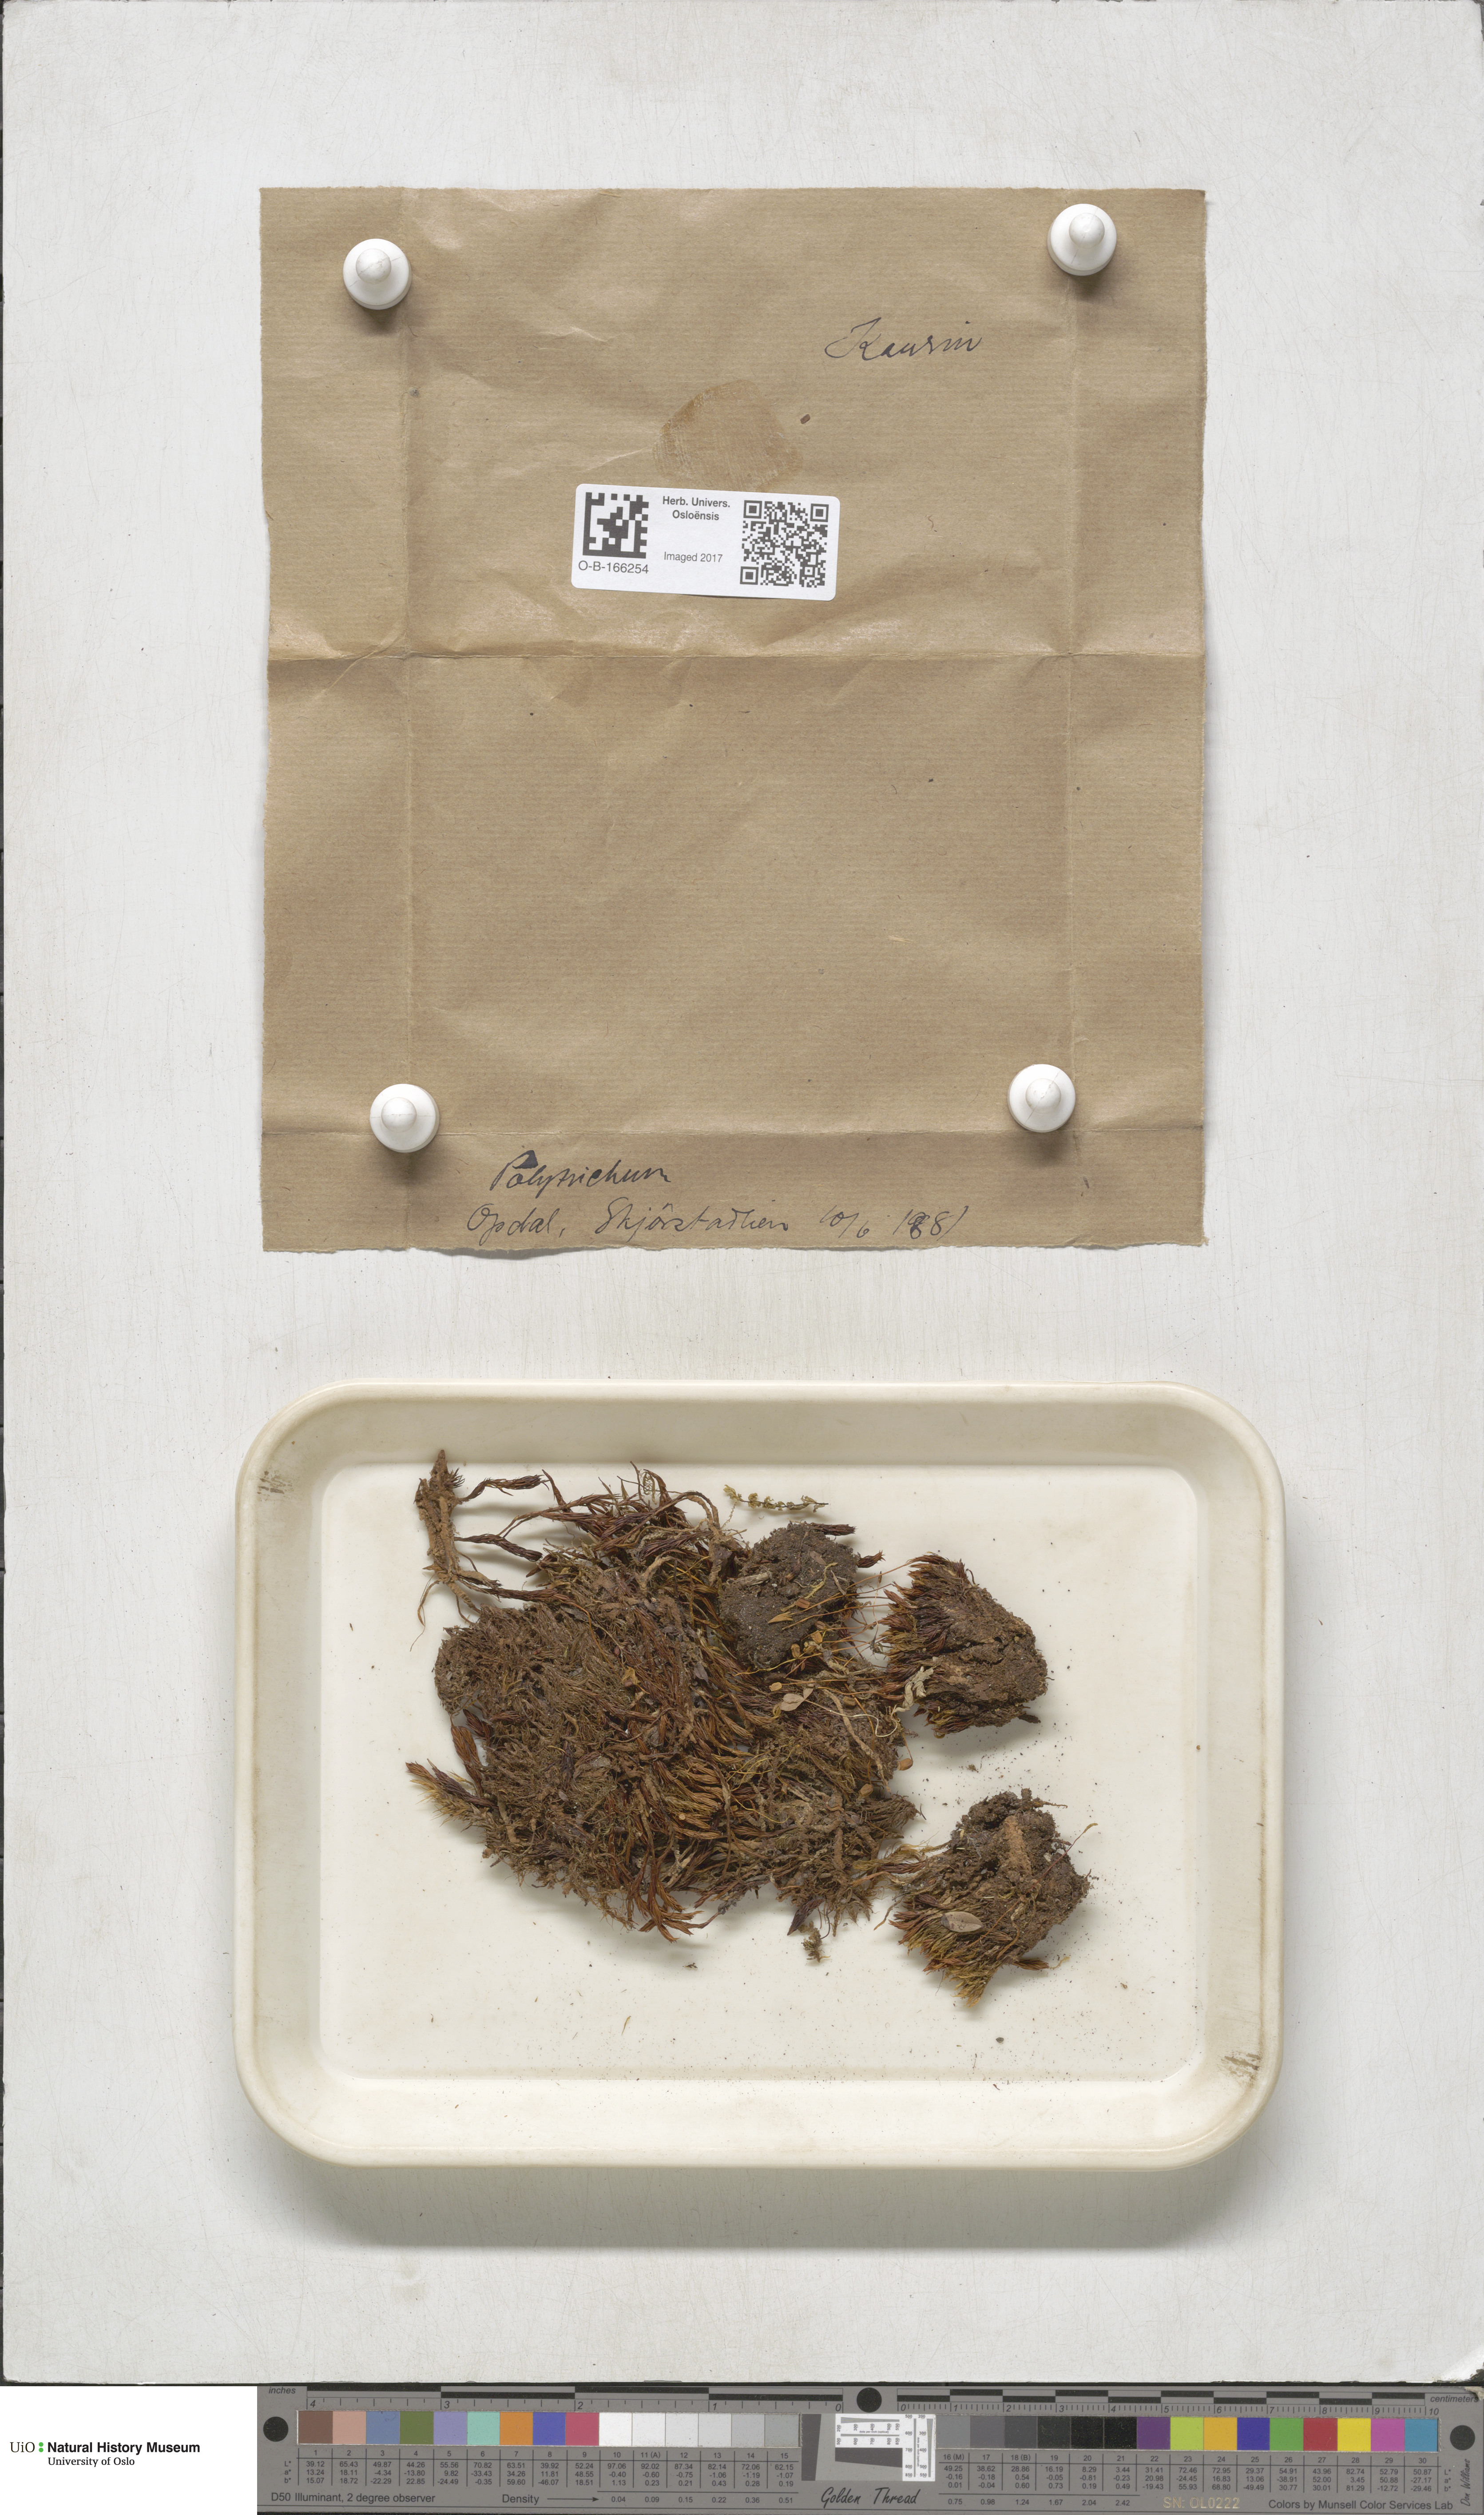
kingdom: Plantae
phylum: Bryophyta
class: Polytrichopsida
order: Polytrichales
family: Polytrichaceae
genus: Polytrichum
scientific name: Polytrichum
